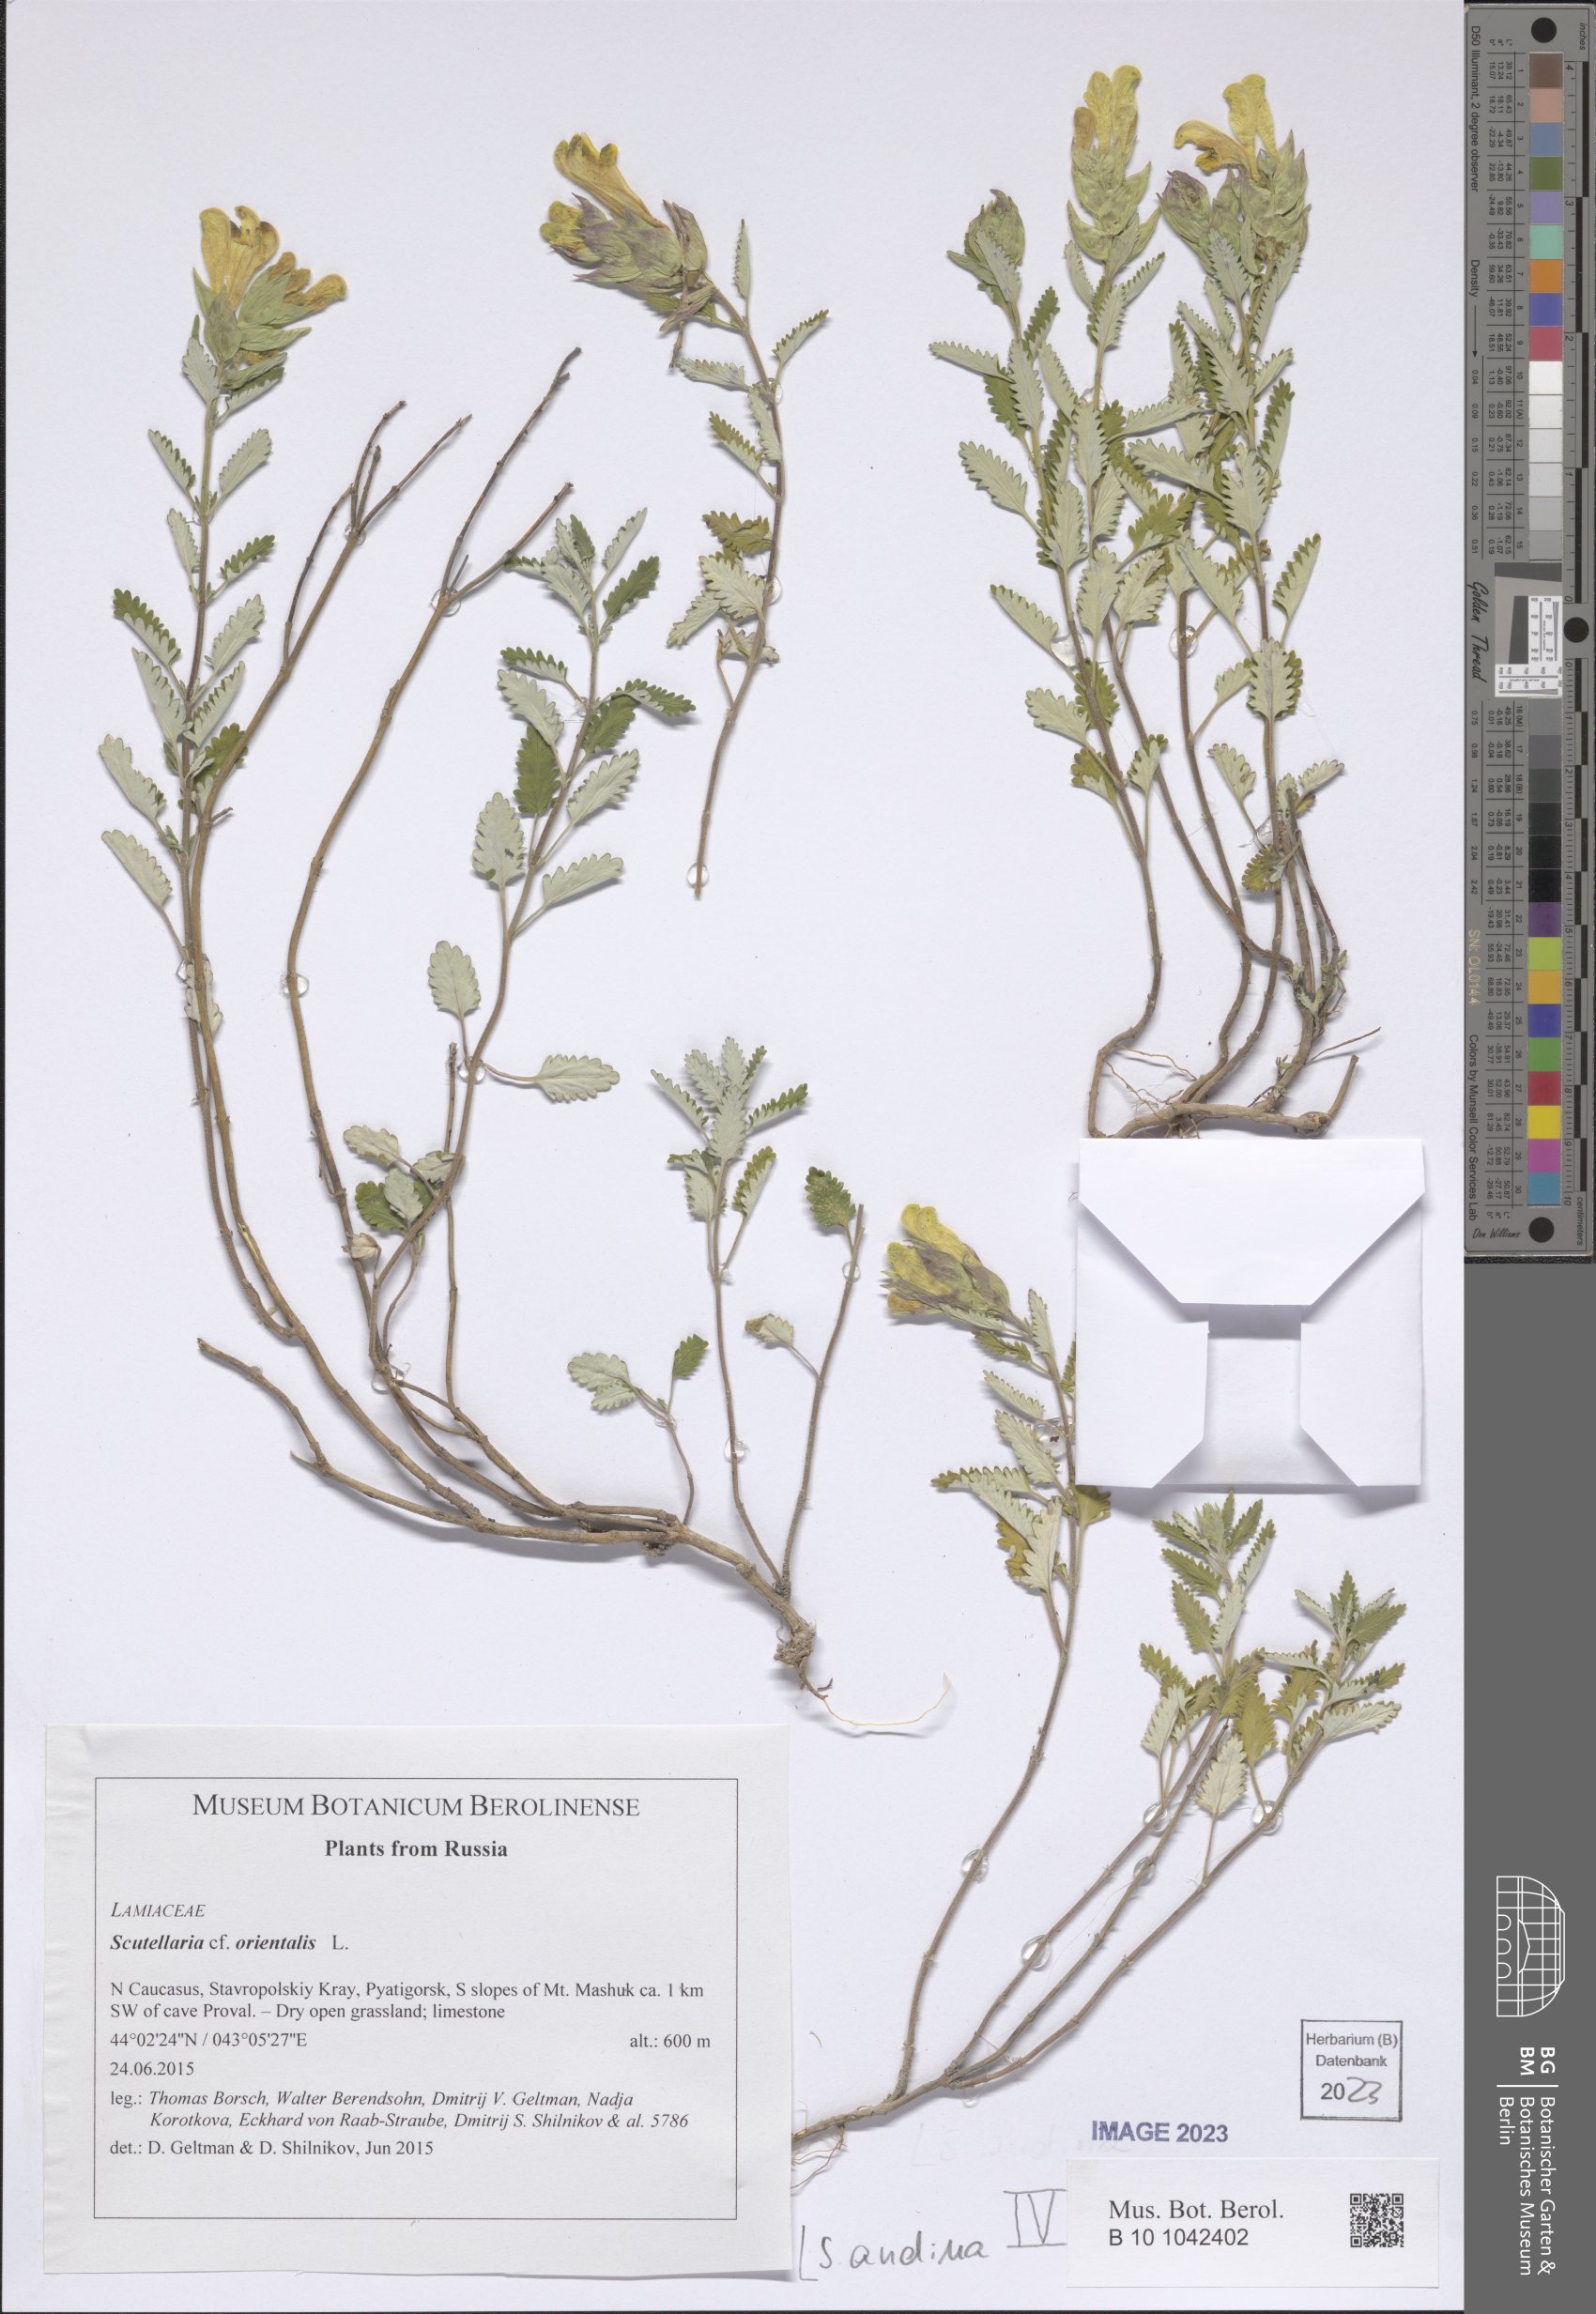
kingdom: Plantae
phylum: Tracheophyta
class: Magnoliopsida
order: Lamiales
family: Lamiaceae
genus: Scutellaria
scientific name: Scutellaria andina
